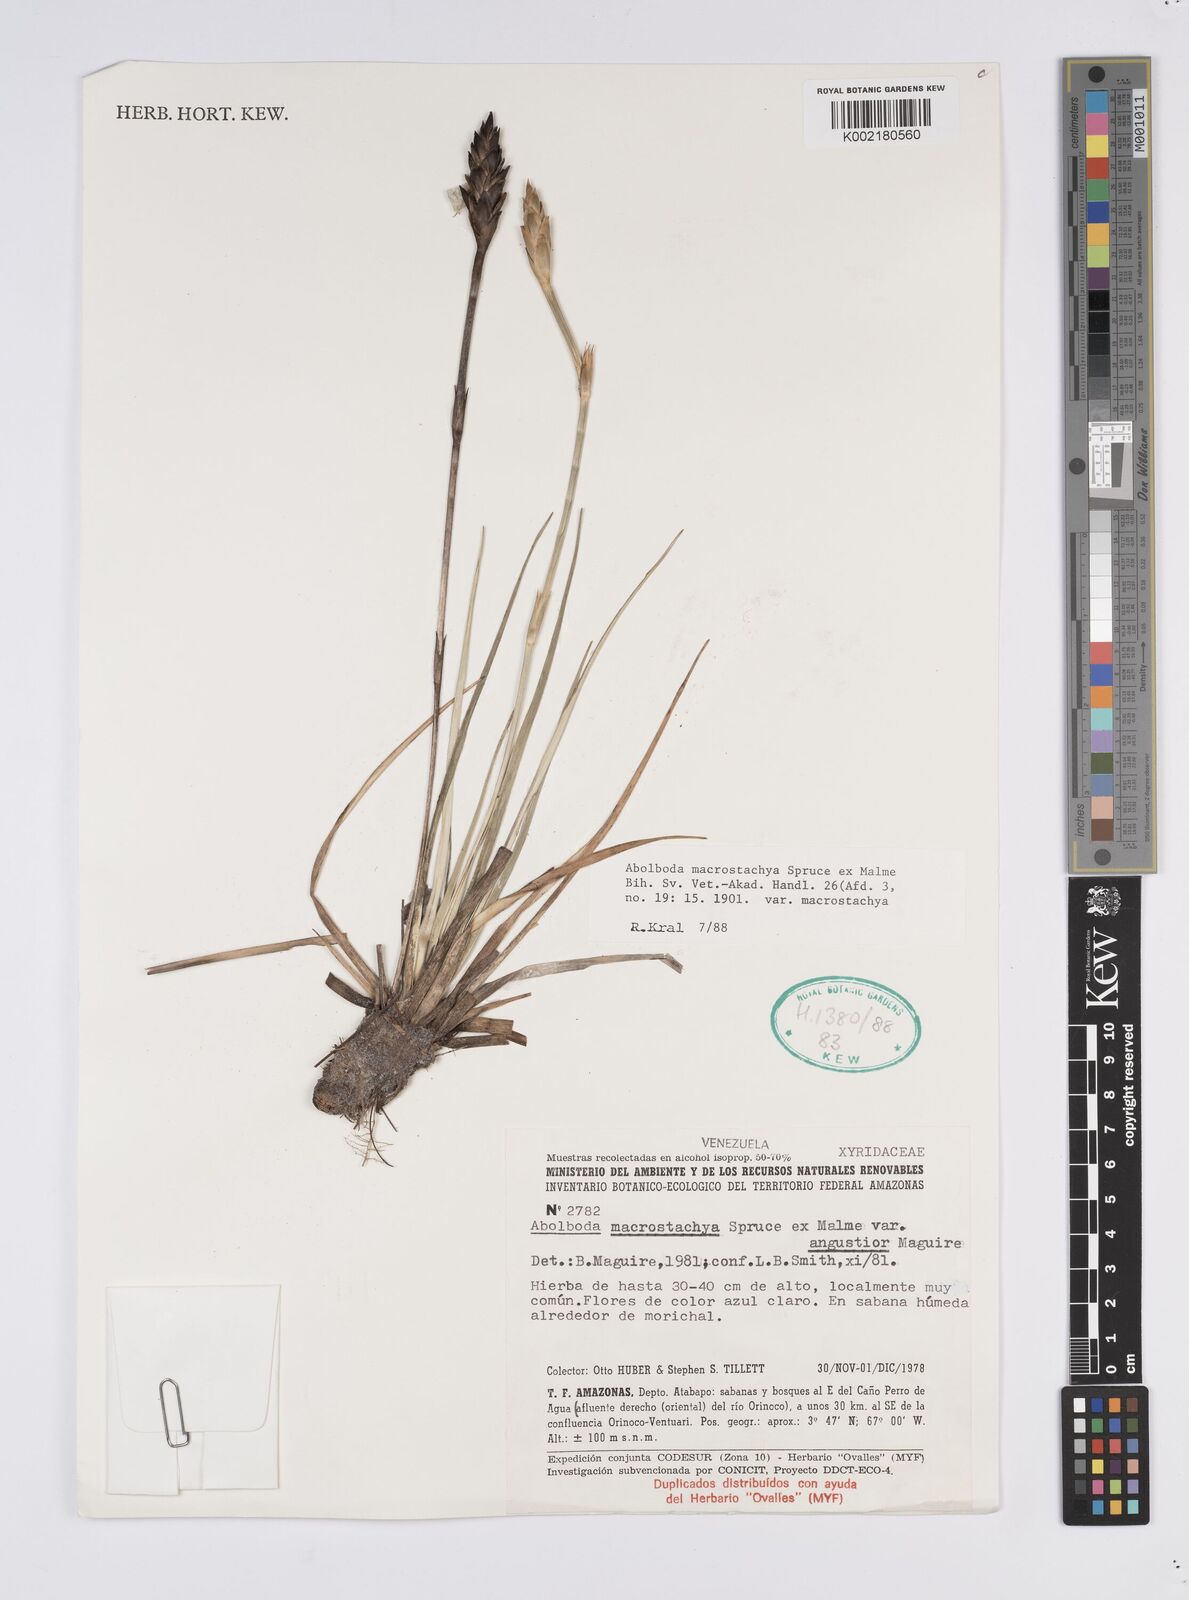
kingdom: Plantae
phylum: Tracheophyta
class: Liliopsida
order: Poales
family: Xyridaceae
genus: Abolboda
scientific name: Abolboda macrostachya
